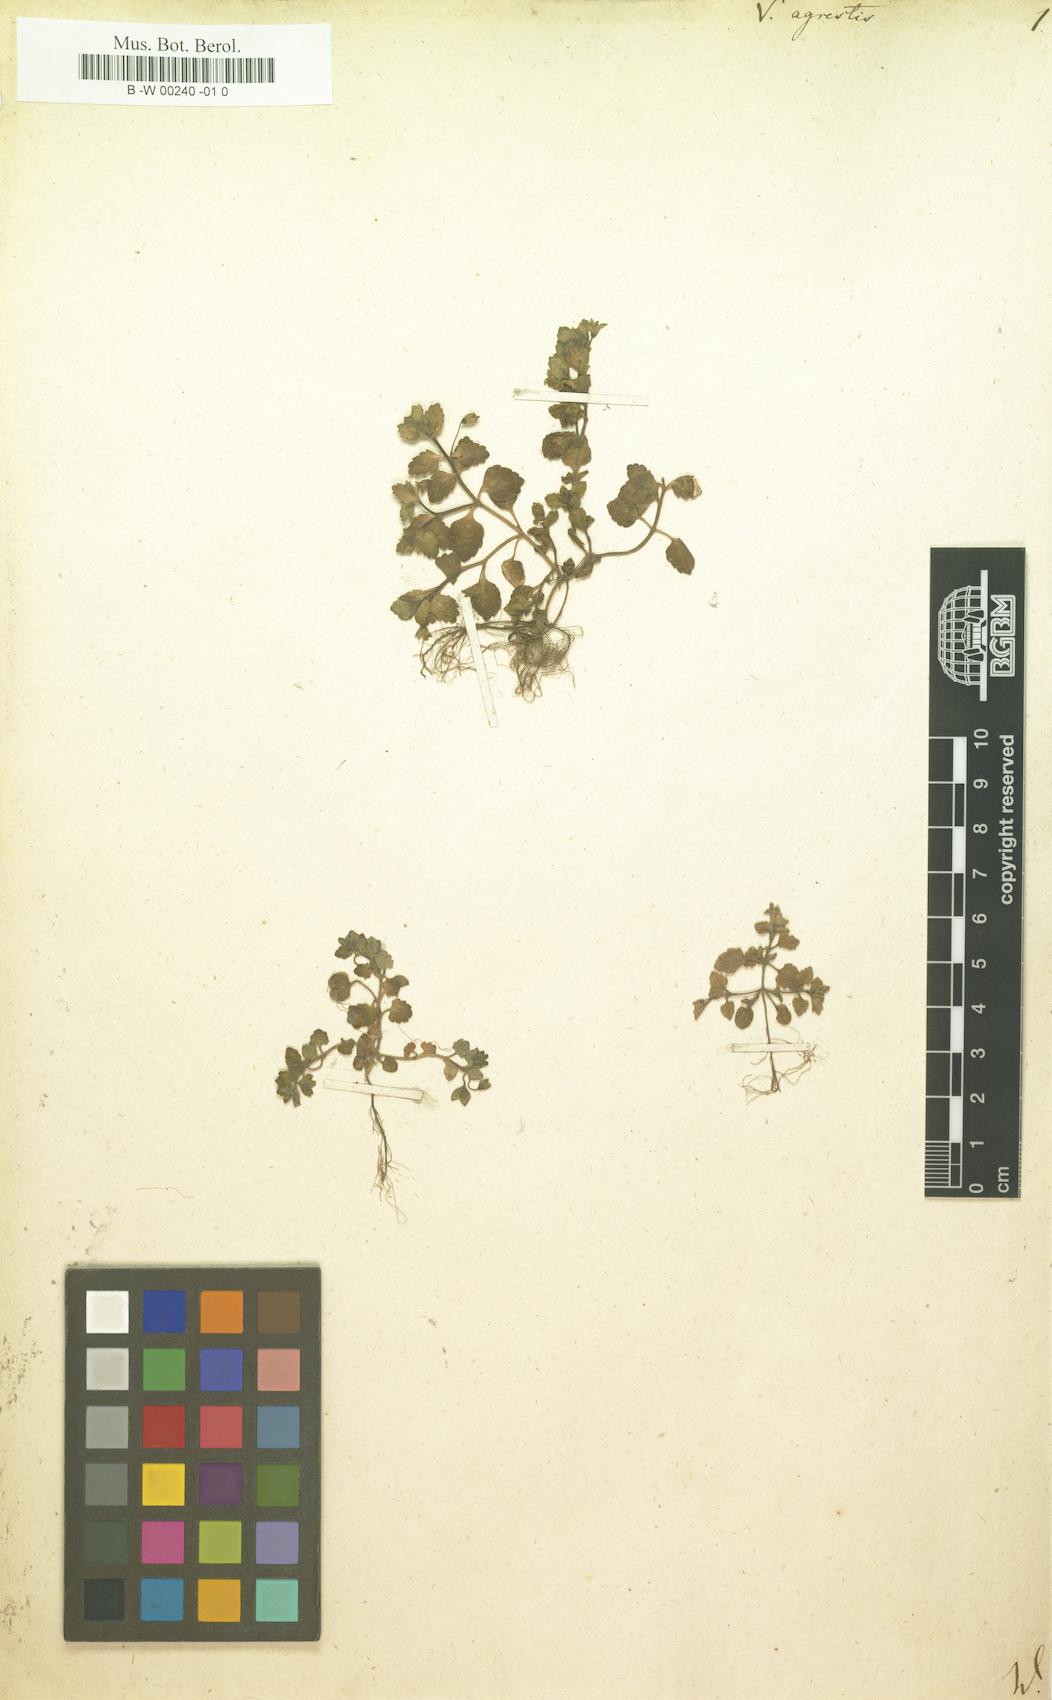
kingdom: Plantae
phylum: Tracheophyta
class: Magnoliopsida
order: Lamiales
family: Plantaginaceae
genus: Veronica
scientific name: Veronica agrestis
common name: Green field-speedwell
